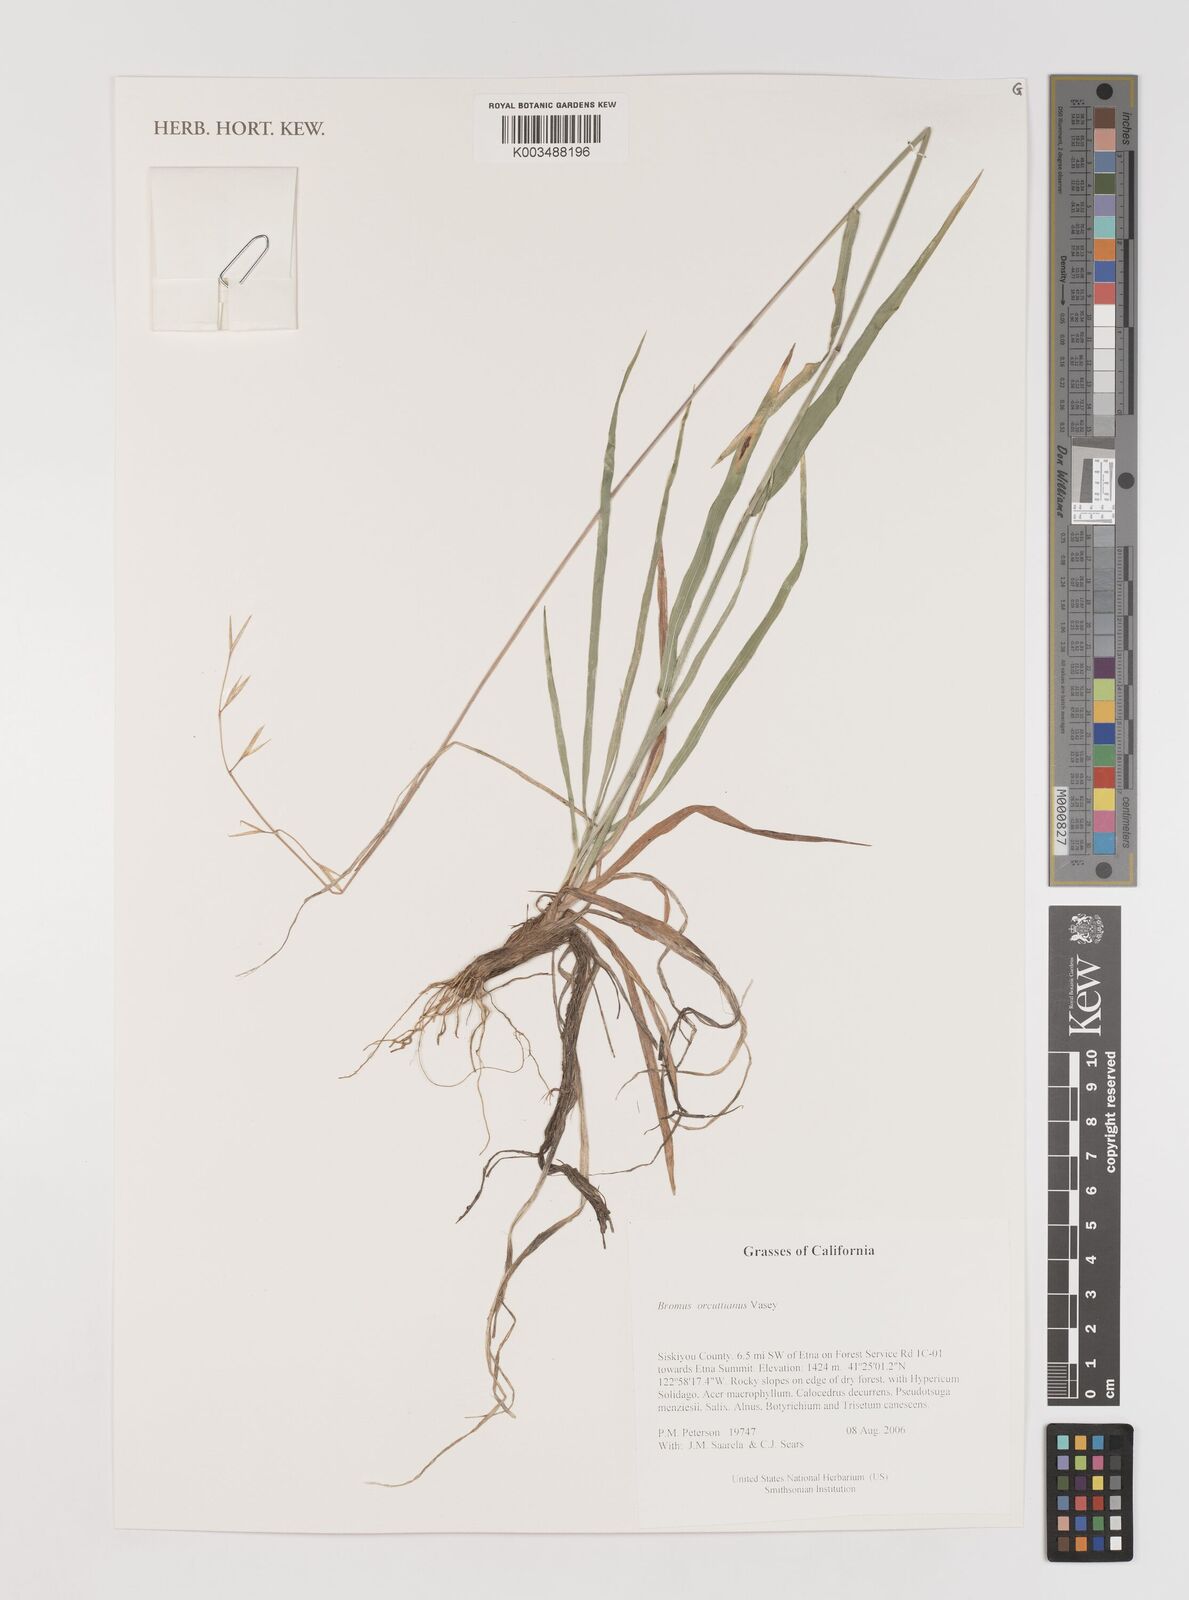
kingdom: Plantae
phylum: Tracheophyta
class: Liliopsida
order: Poales
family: Poaceae
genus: Bromus
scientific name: Bromus orcuttianus
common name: Orcutt's brome
